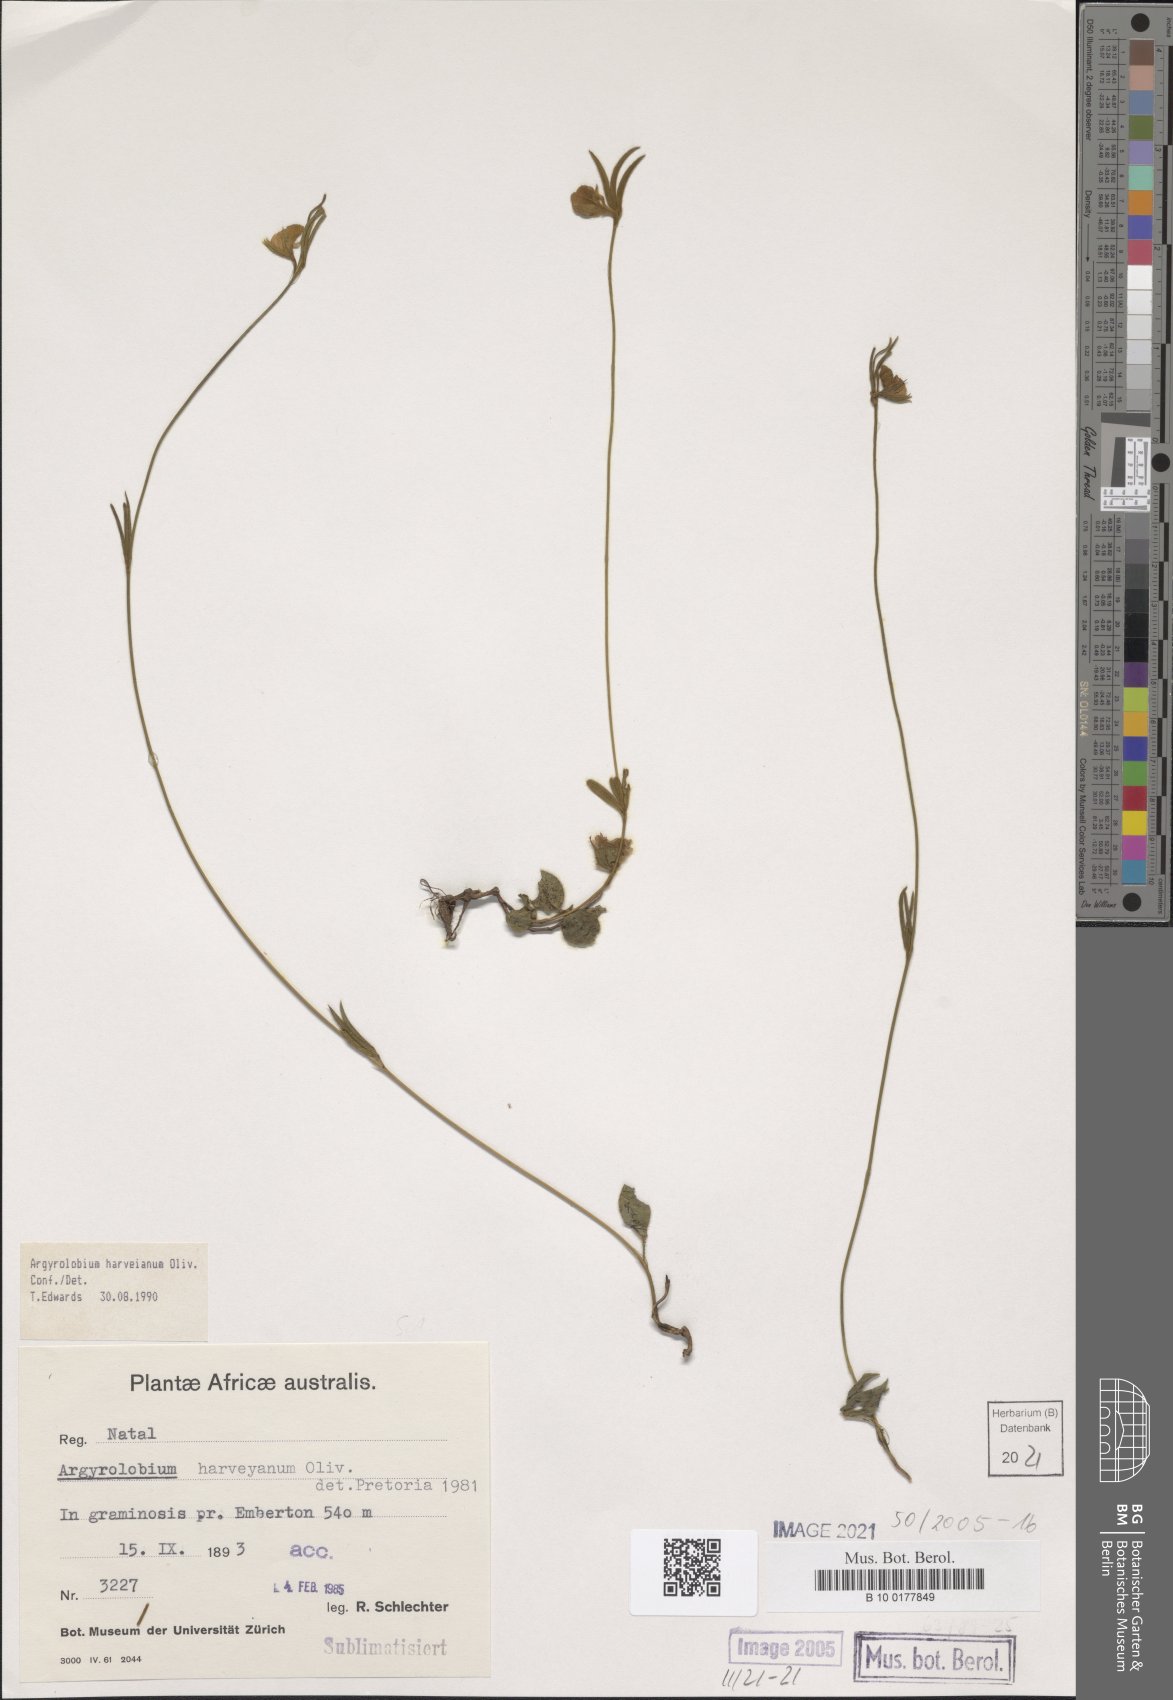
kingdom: Plantae
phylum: Tracheophyta
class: Magnoliopsida
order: Fabales
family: Fabaceae
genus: Argyrolobium
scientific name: Argyrolobium harveyanum
